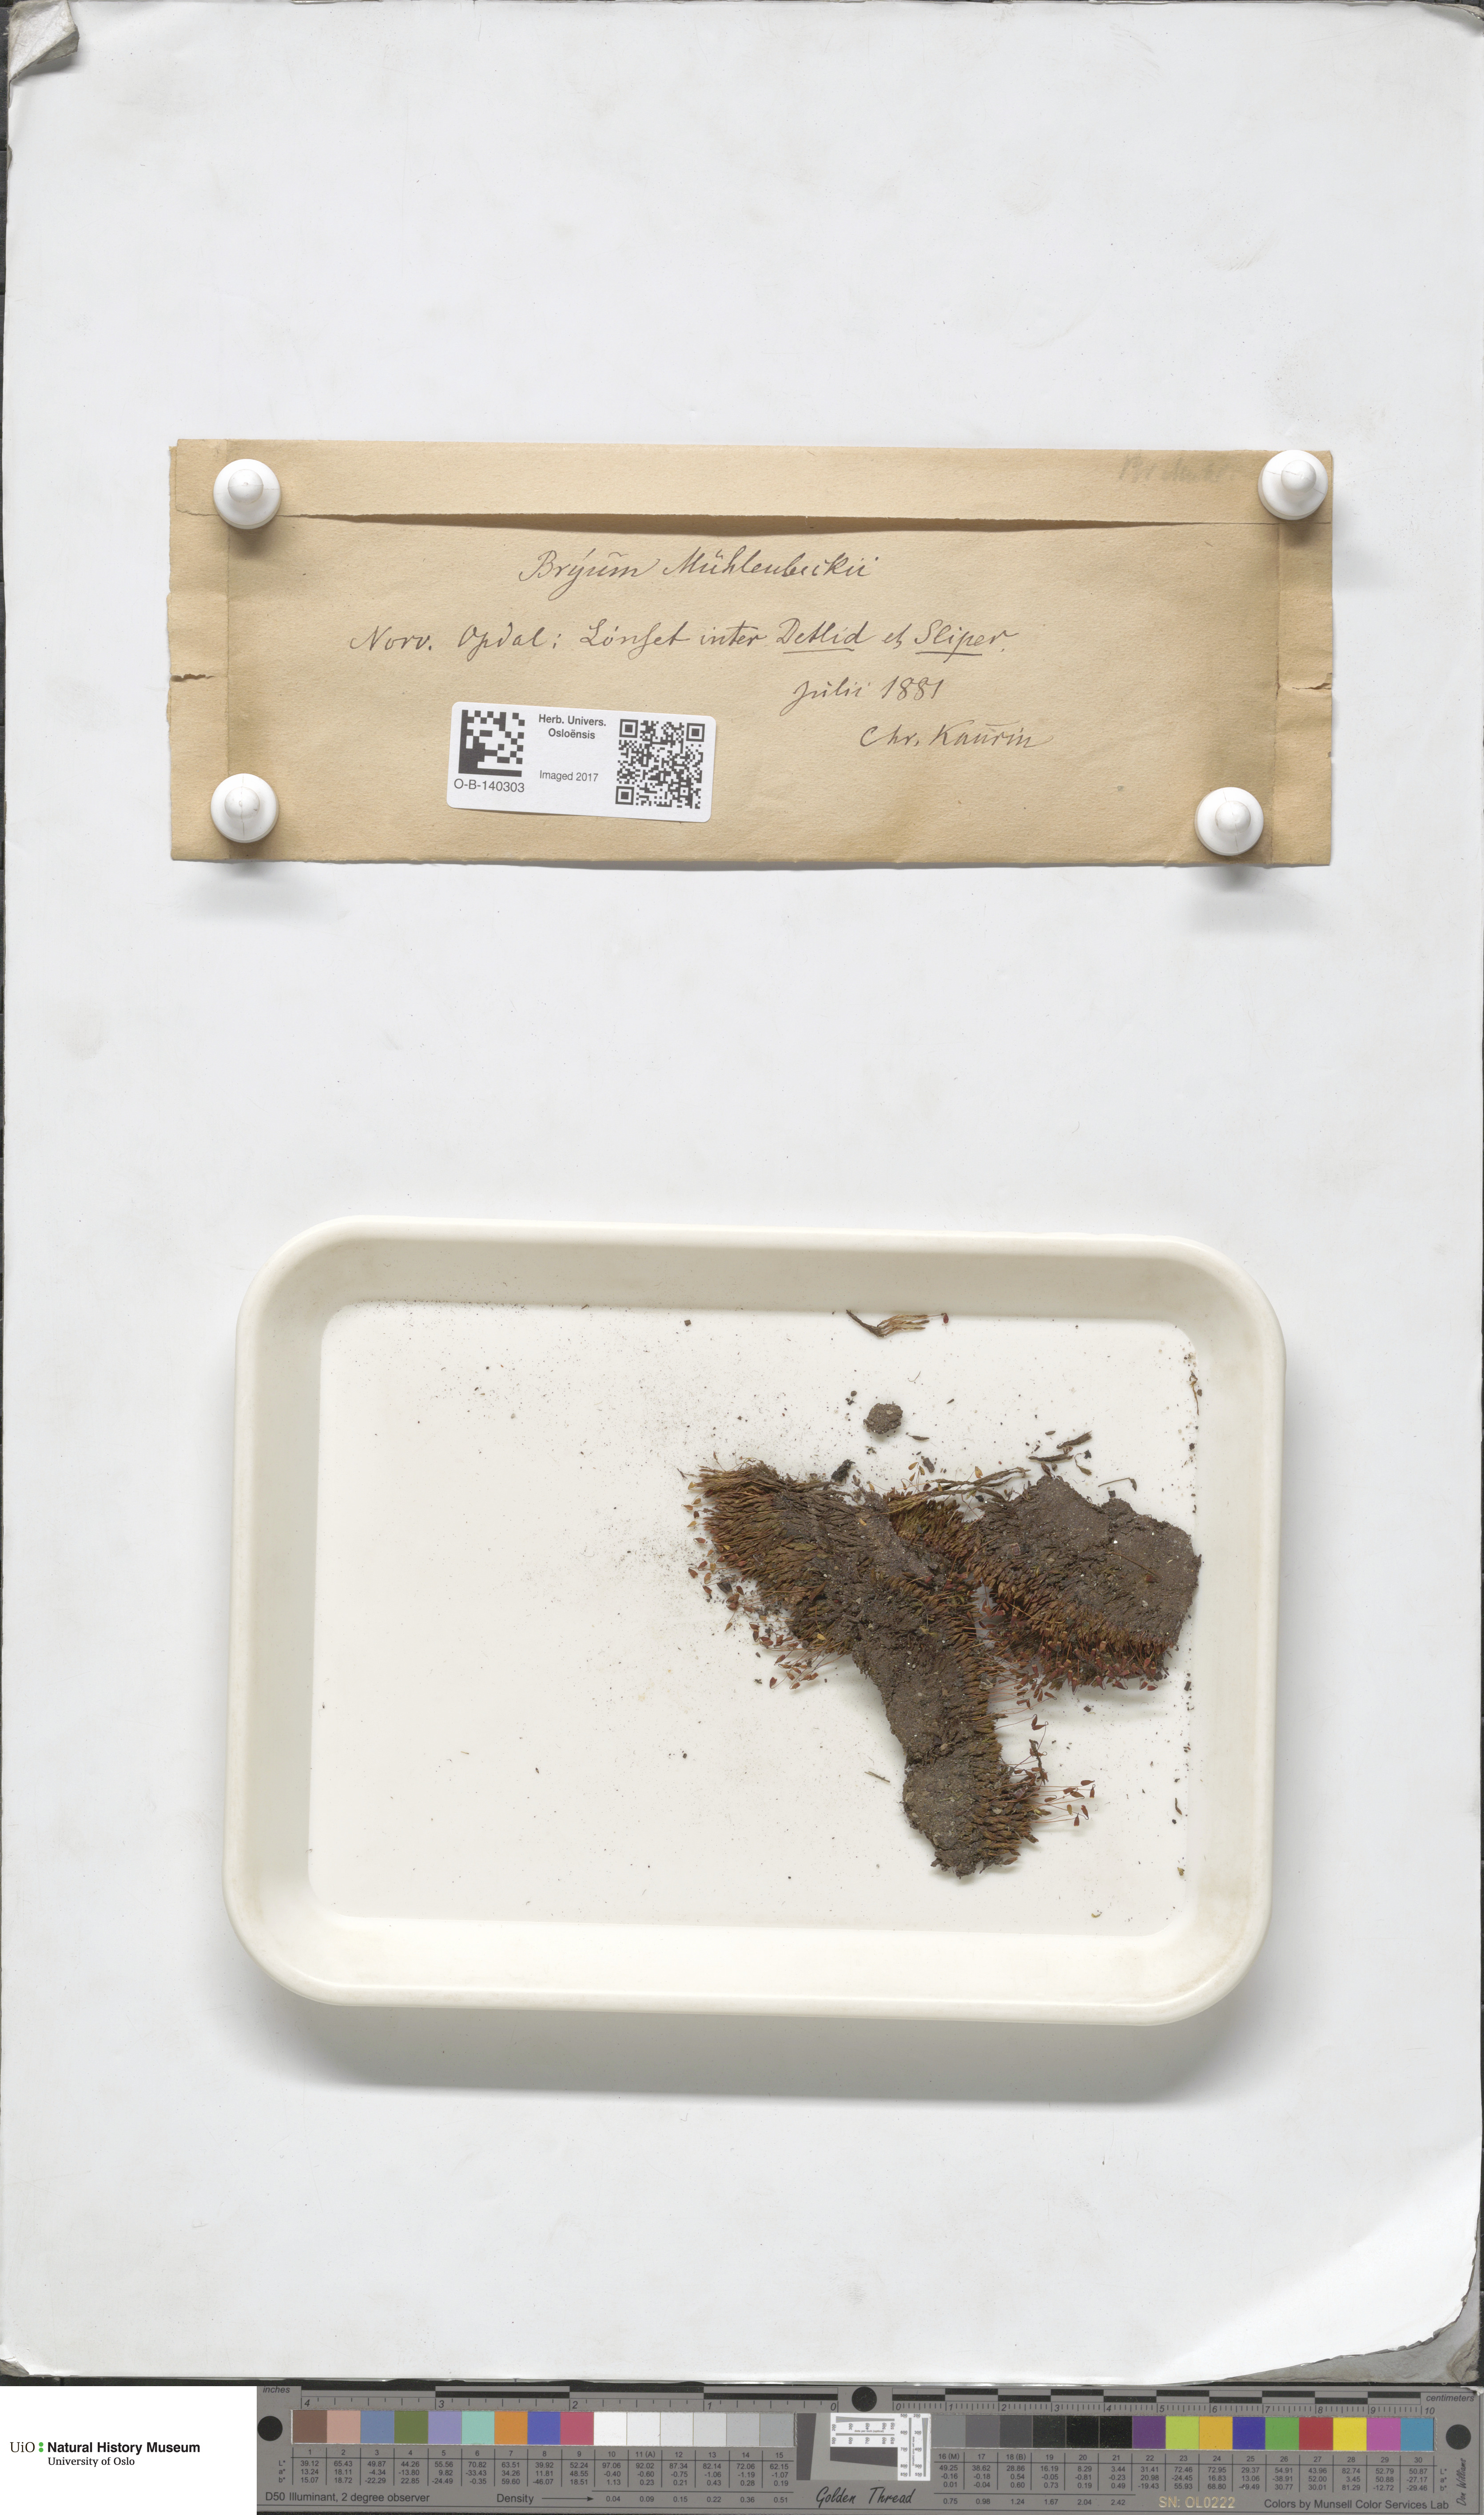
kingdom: Plantae
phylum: Bryophyta
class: Bryopsida
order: Bryales
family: Bryaceae
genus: Imbribryum
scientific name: Imbribryum muehlenbeckii
